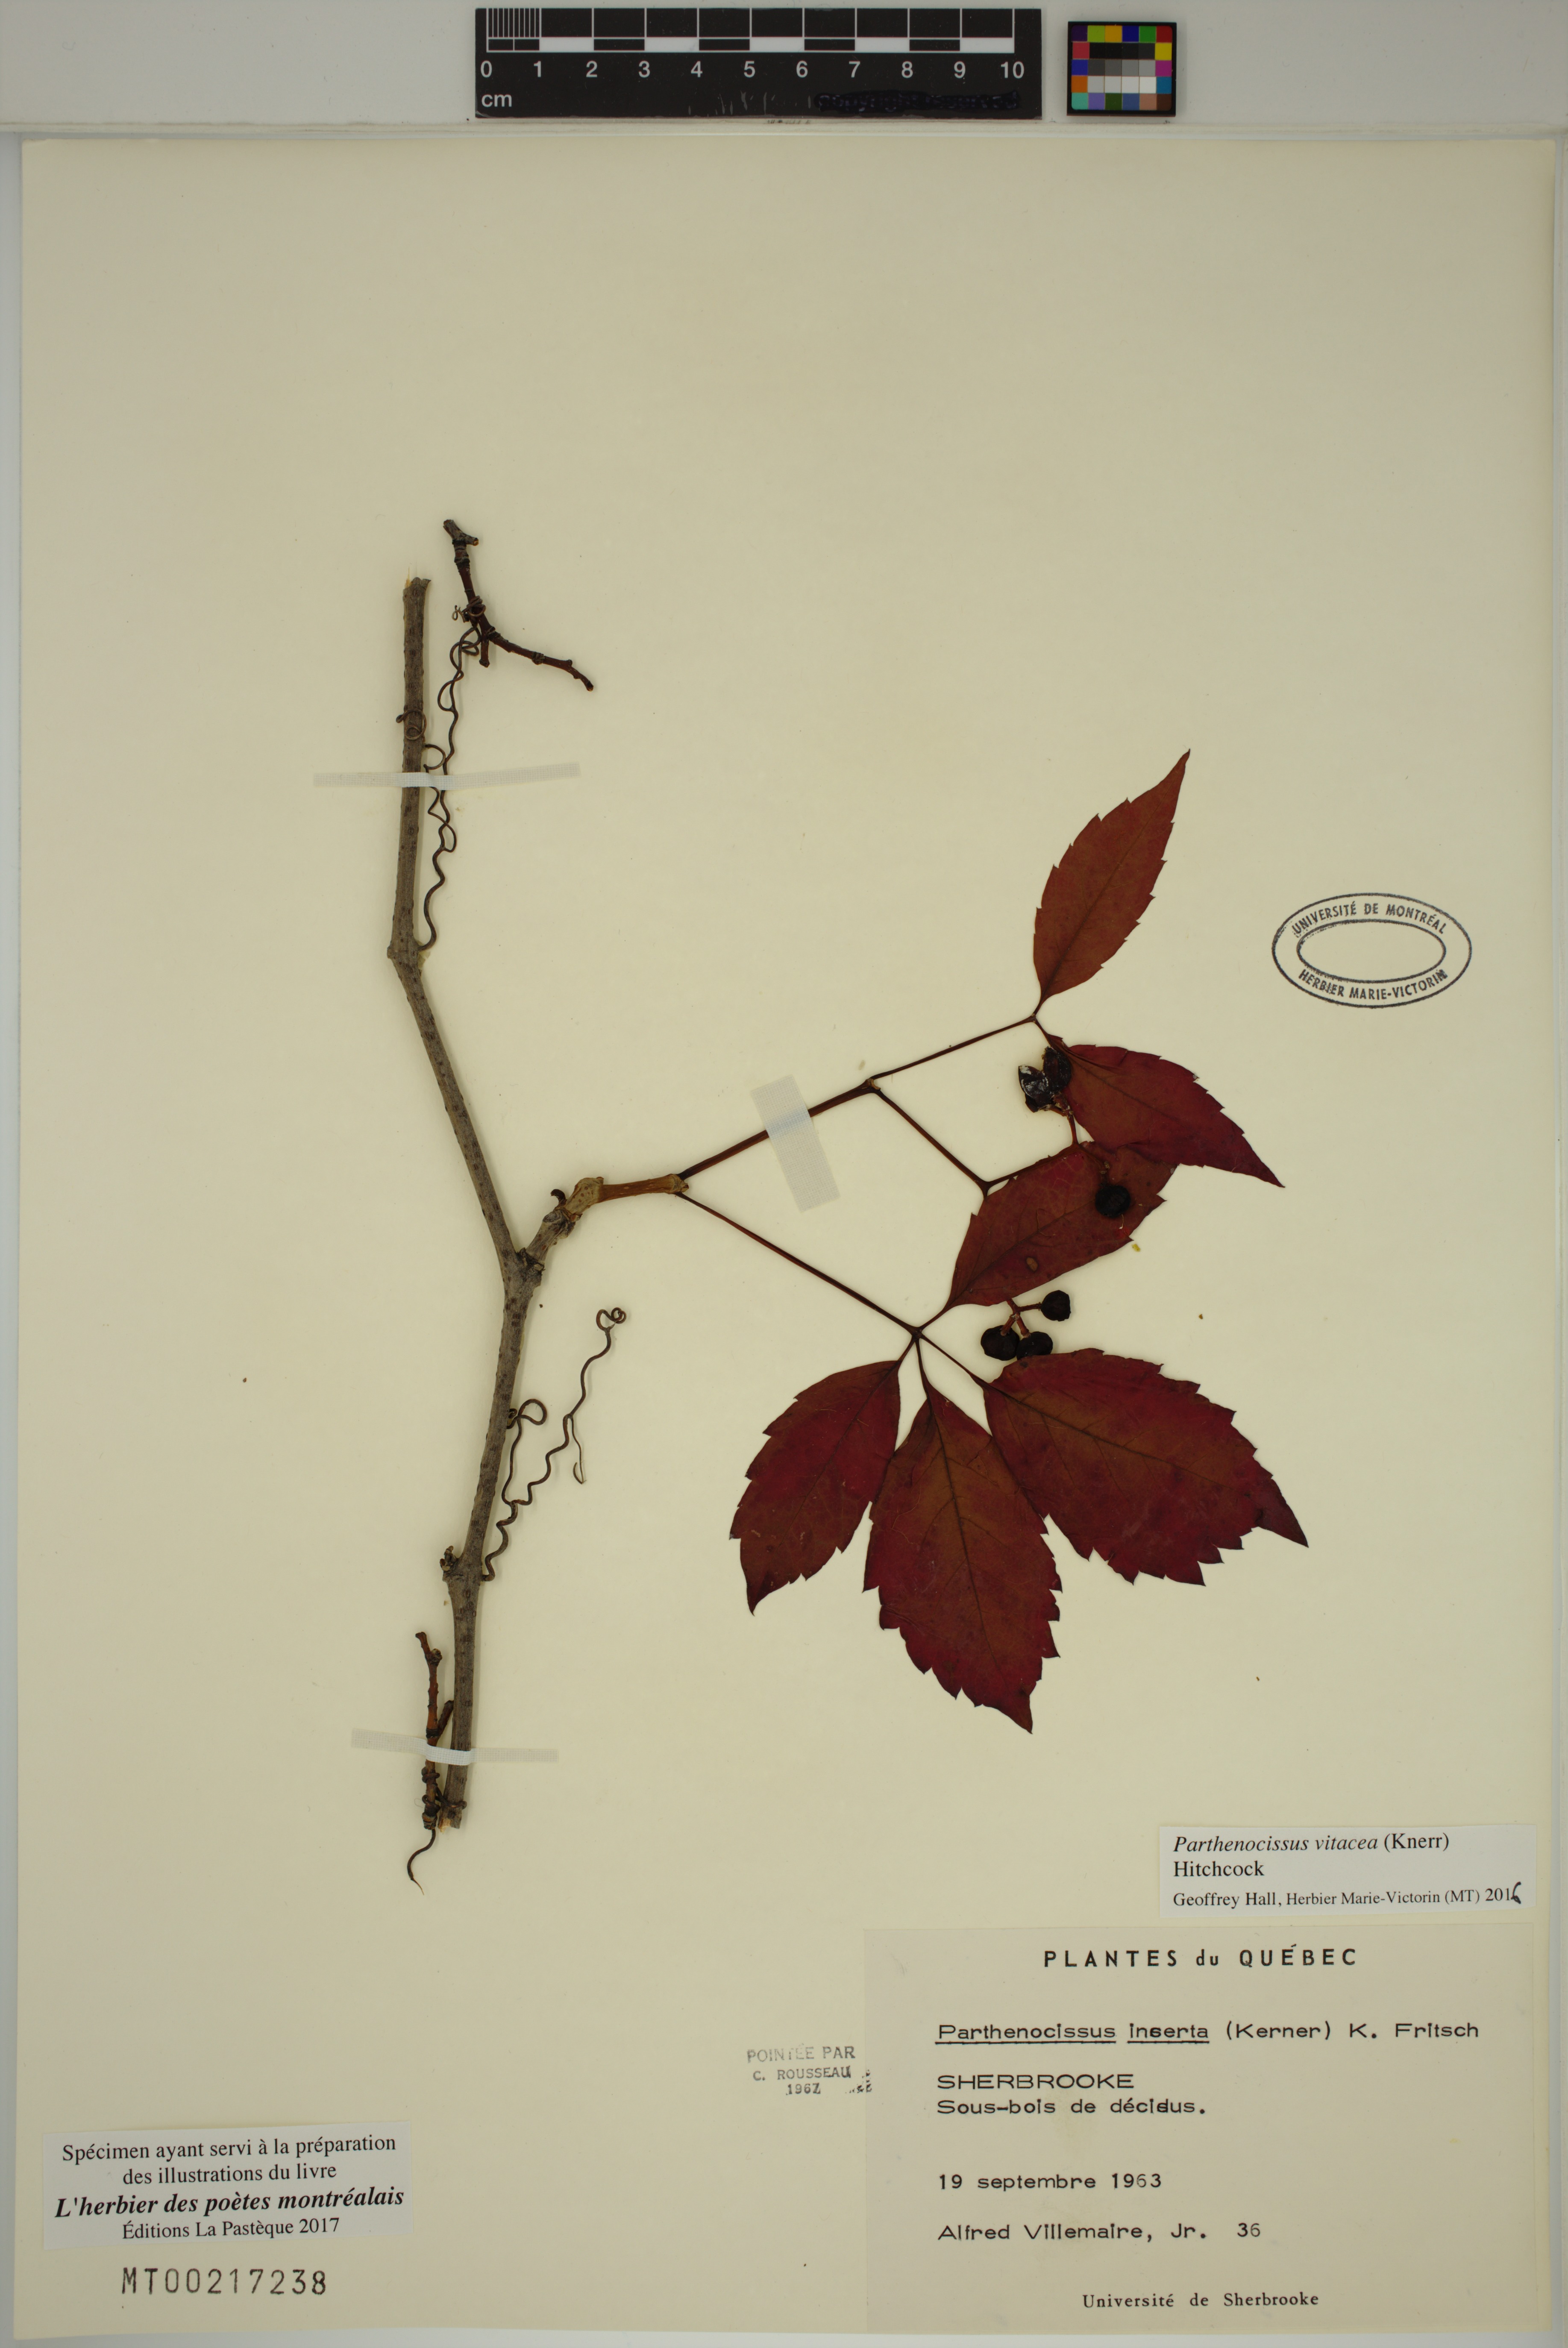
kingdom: Plantae
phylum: Tracheophyta
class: Magnoliopsida
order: Vitales
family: Vitaceae
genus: Parthenocissus
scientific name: Parthenocissus inserta
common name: False virginia-creeper
